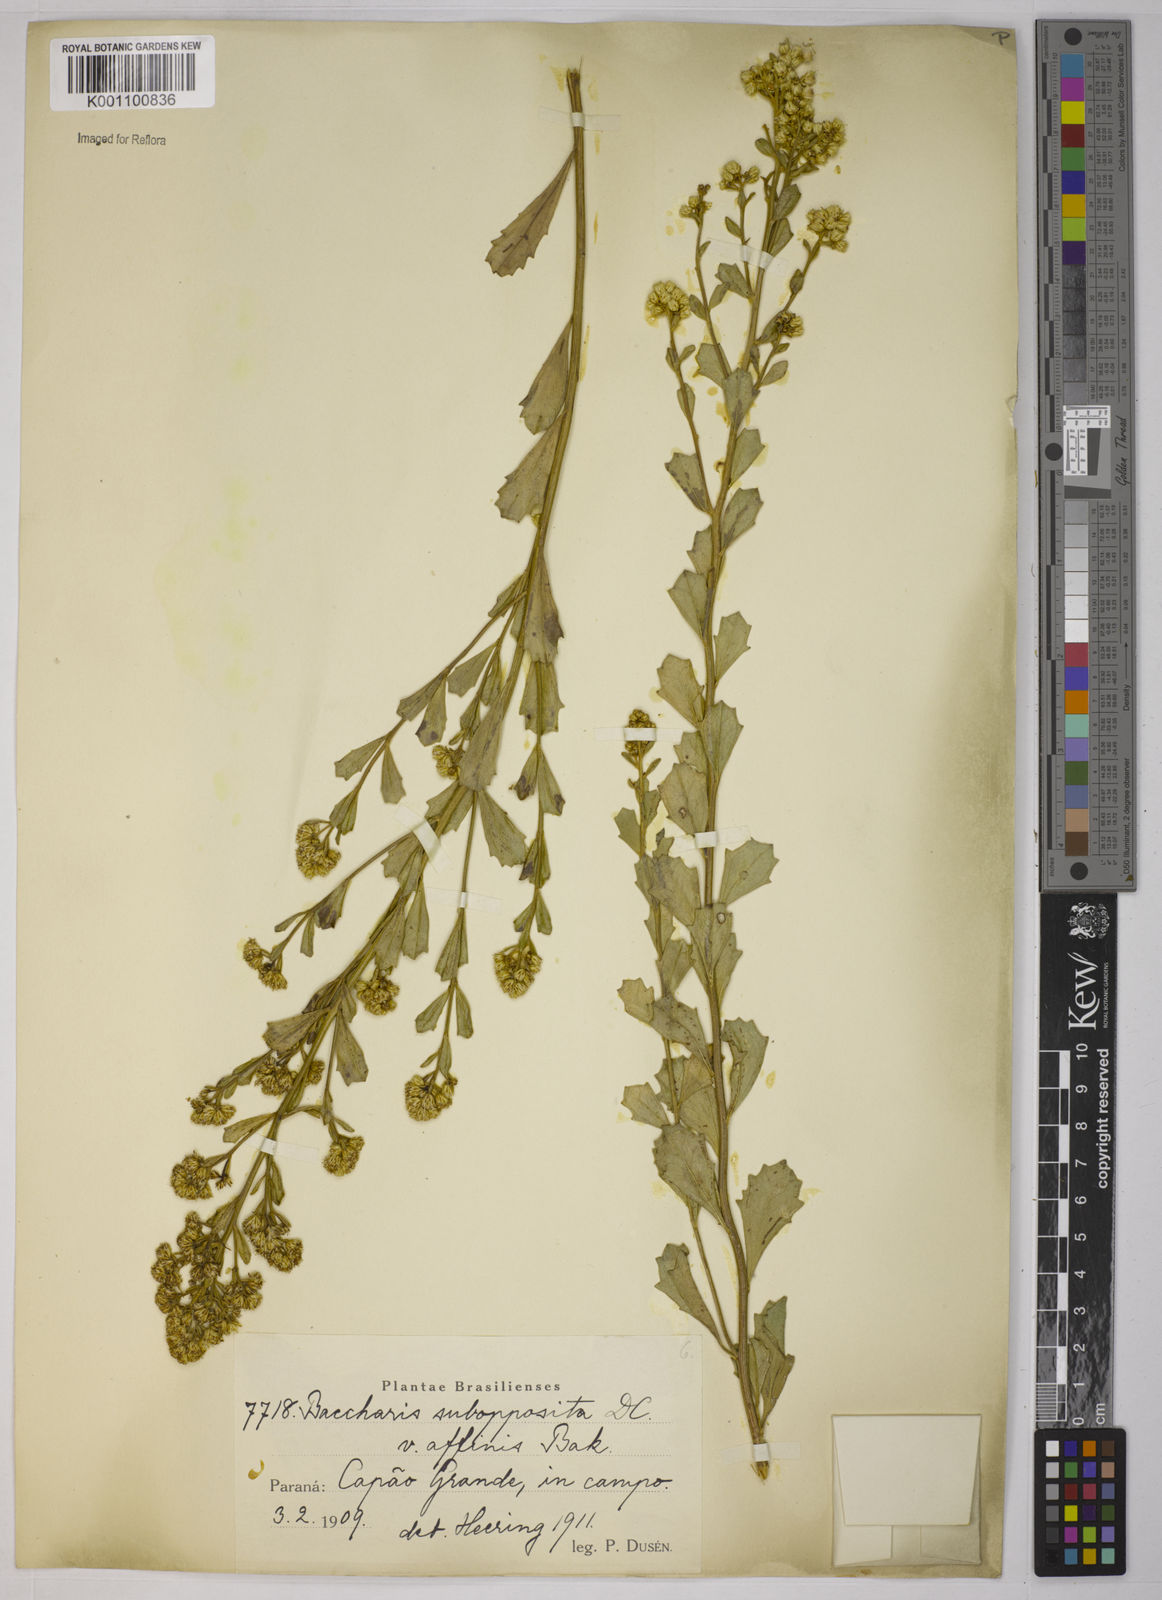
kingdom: Plantae
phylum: Tracheophyta
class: Magnoliopsida
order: Asterales
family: Asteraceae
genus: Baccharis
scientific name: Baccharis subopposita
